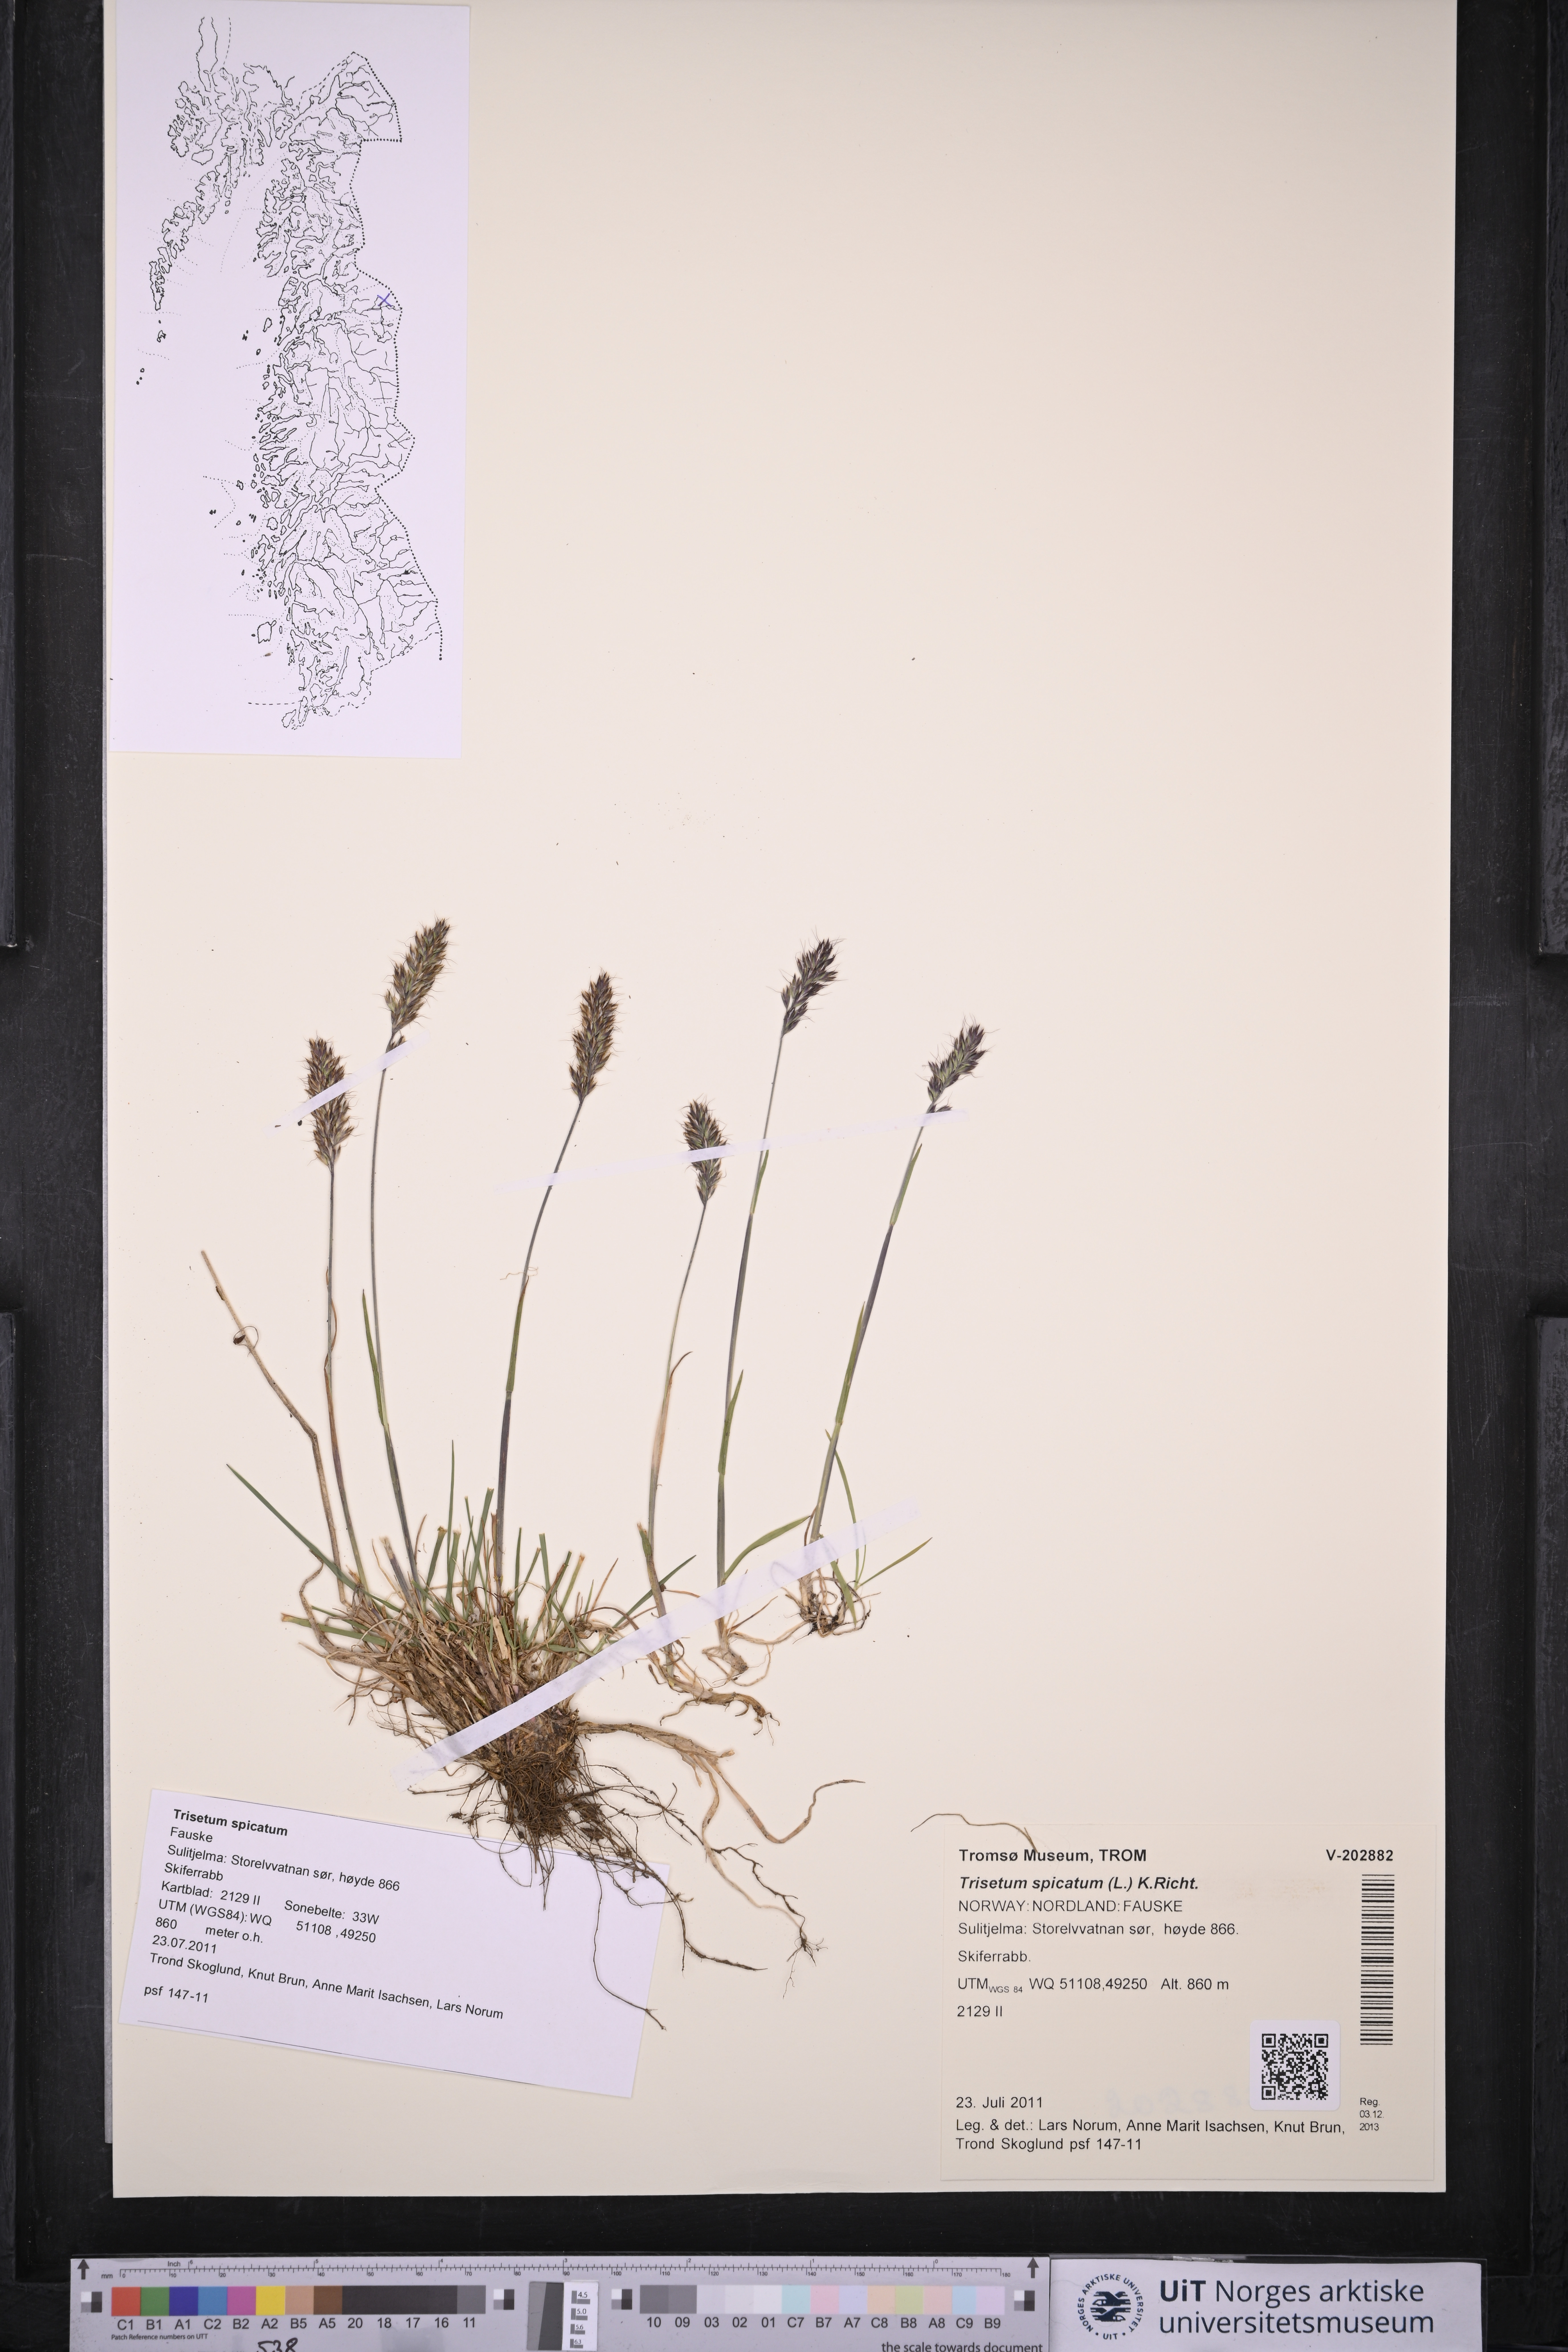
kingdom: Plantae
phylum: Tracheophyta
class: Liliopsida
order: Poales
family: Poaceae
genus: Koeleria
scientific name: Koeleria spicata
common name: Mountain trisetum
